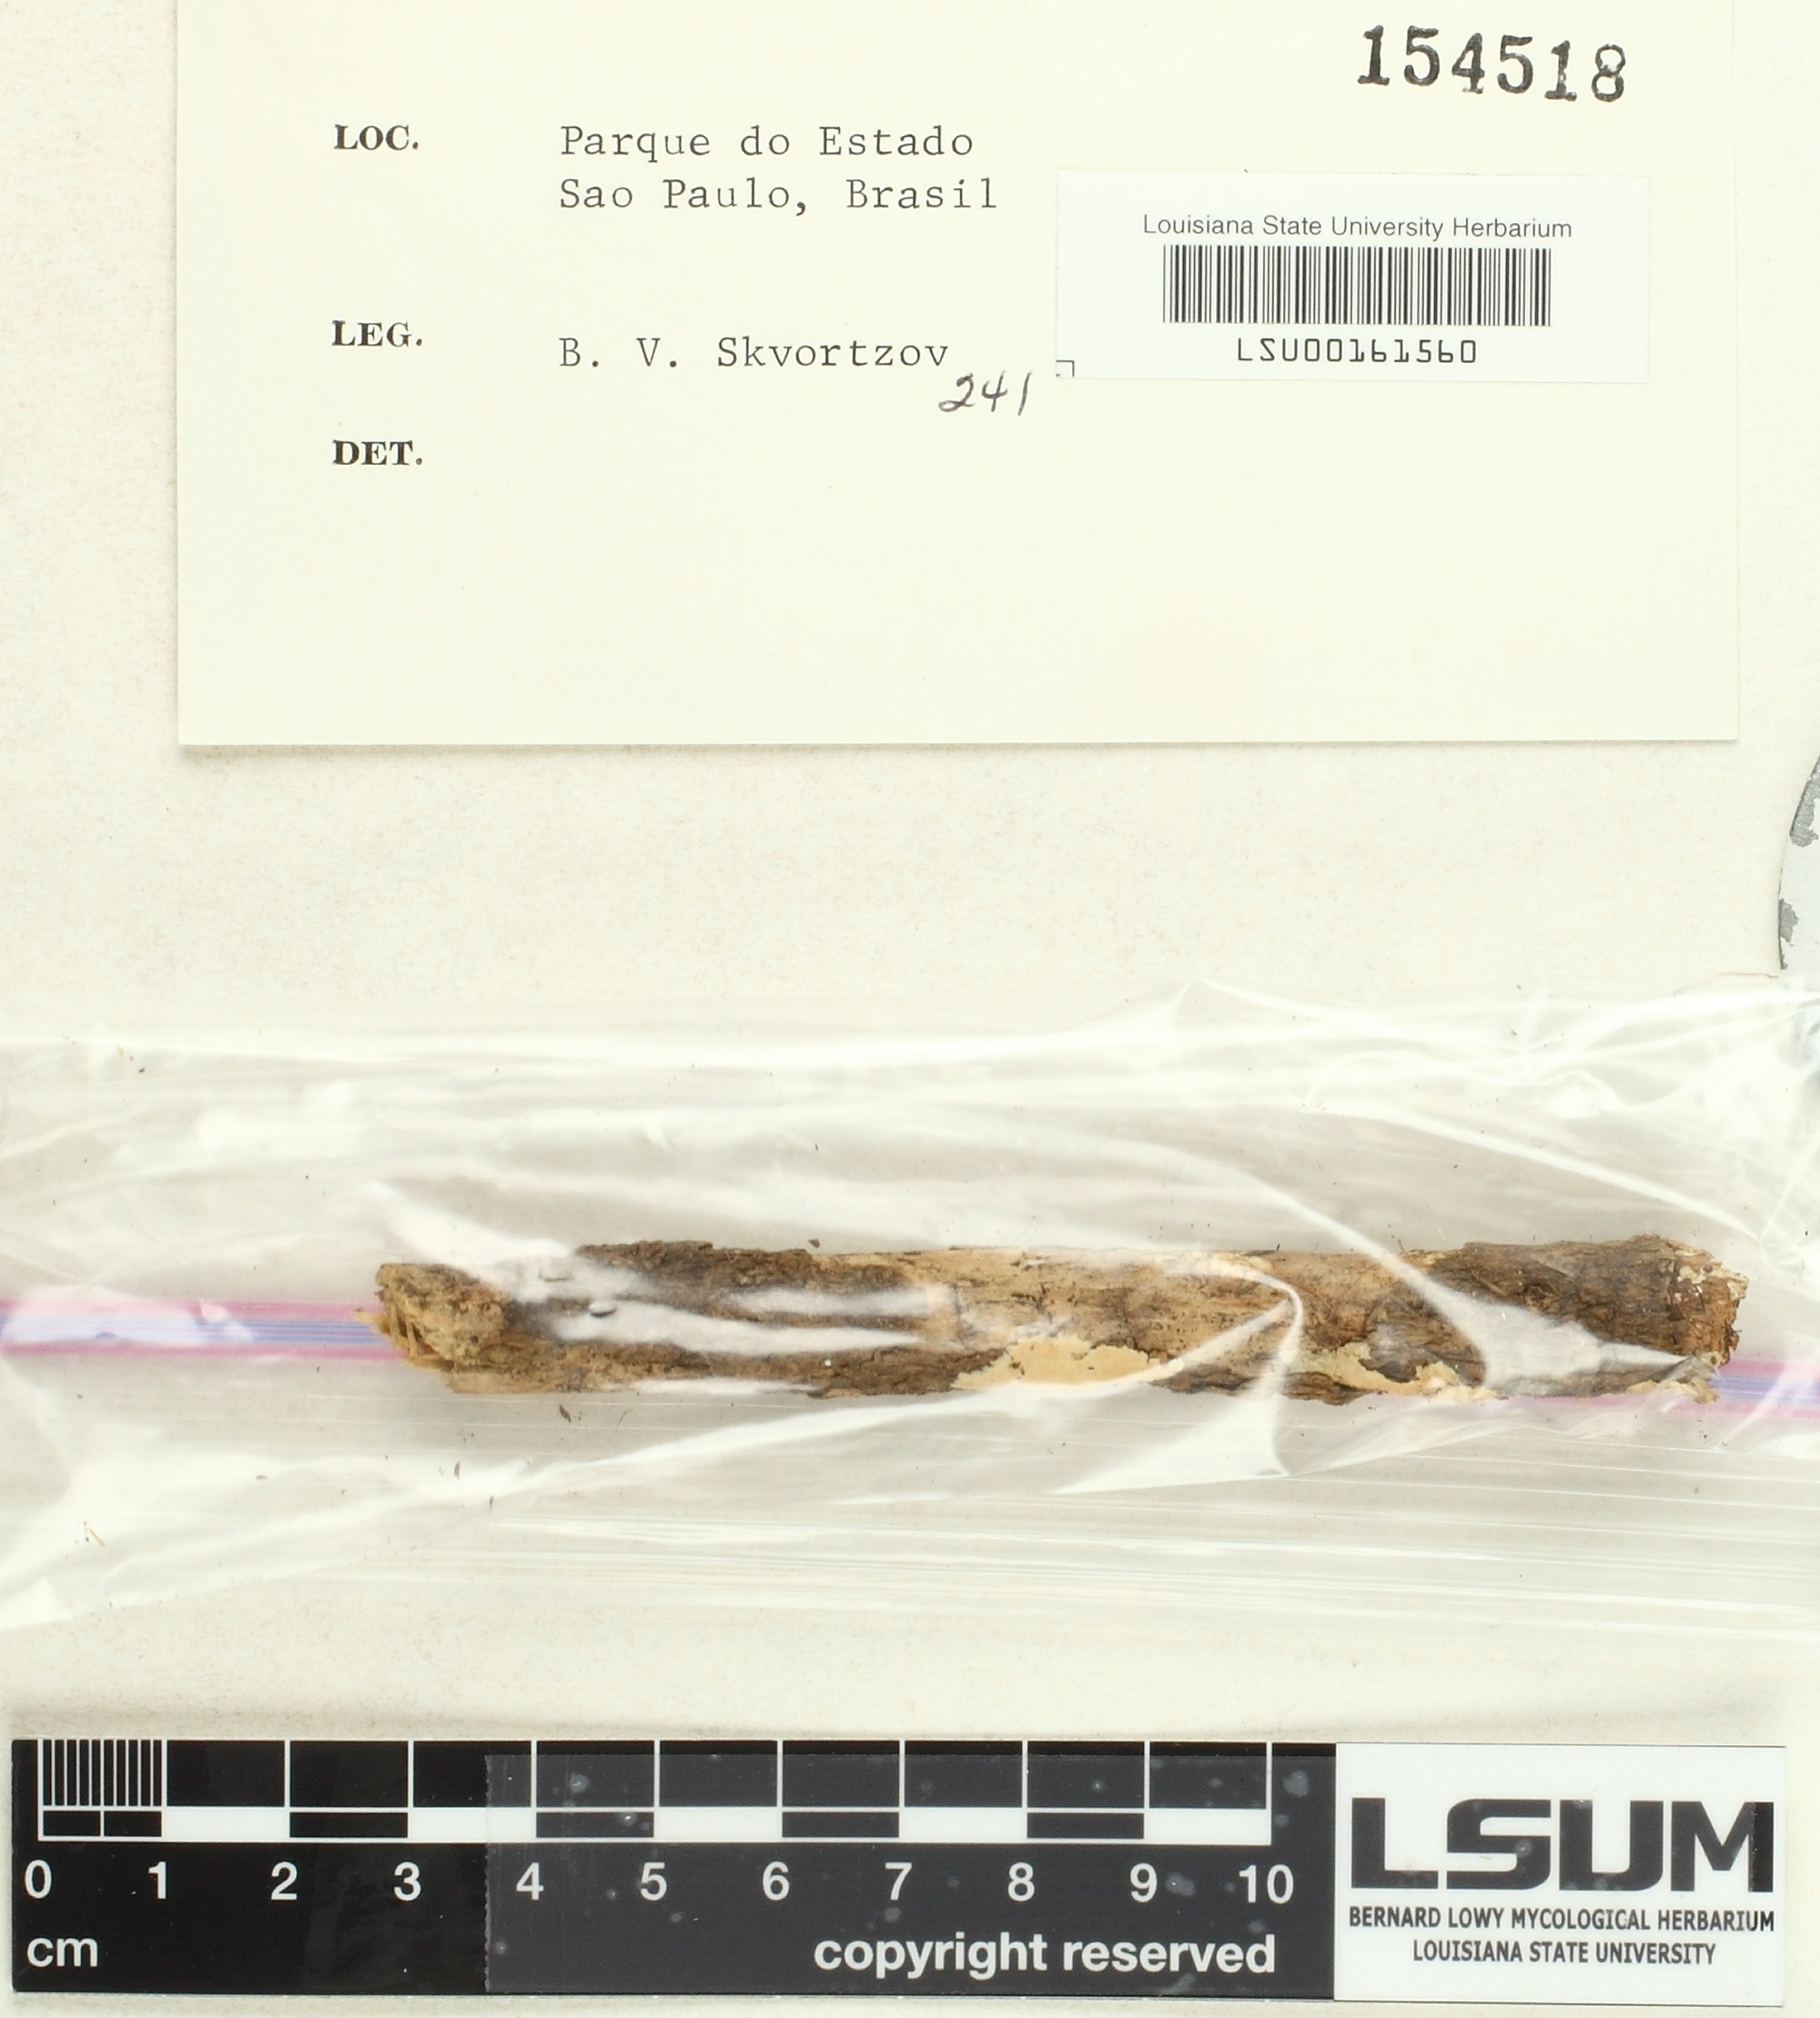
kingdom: Fungi
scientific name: Fungi
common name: Fungi
